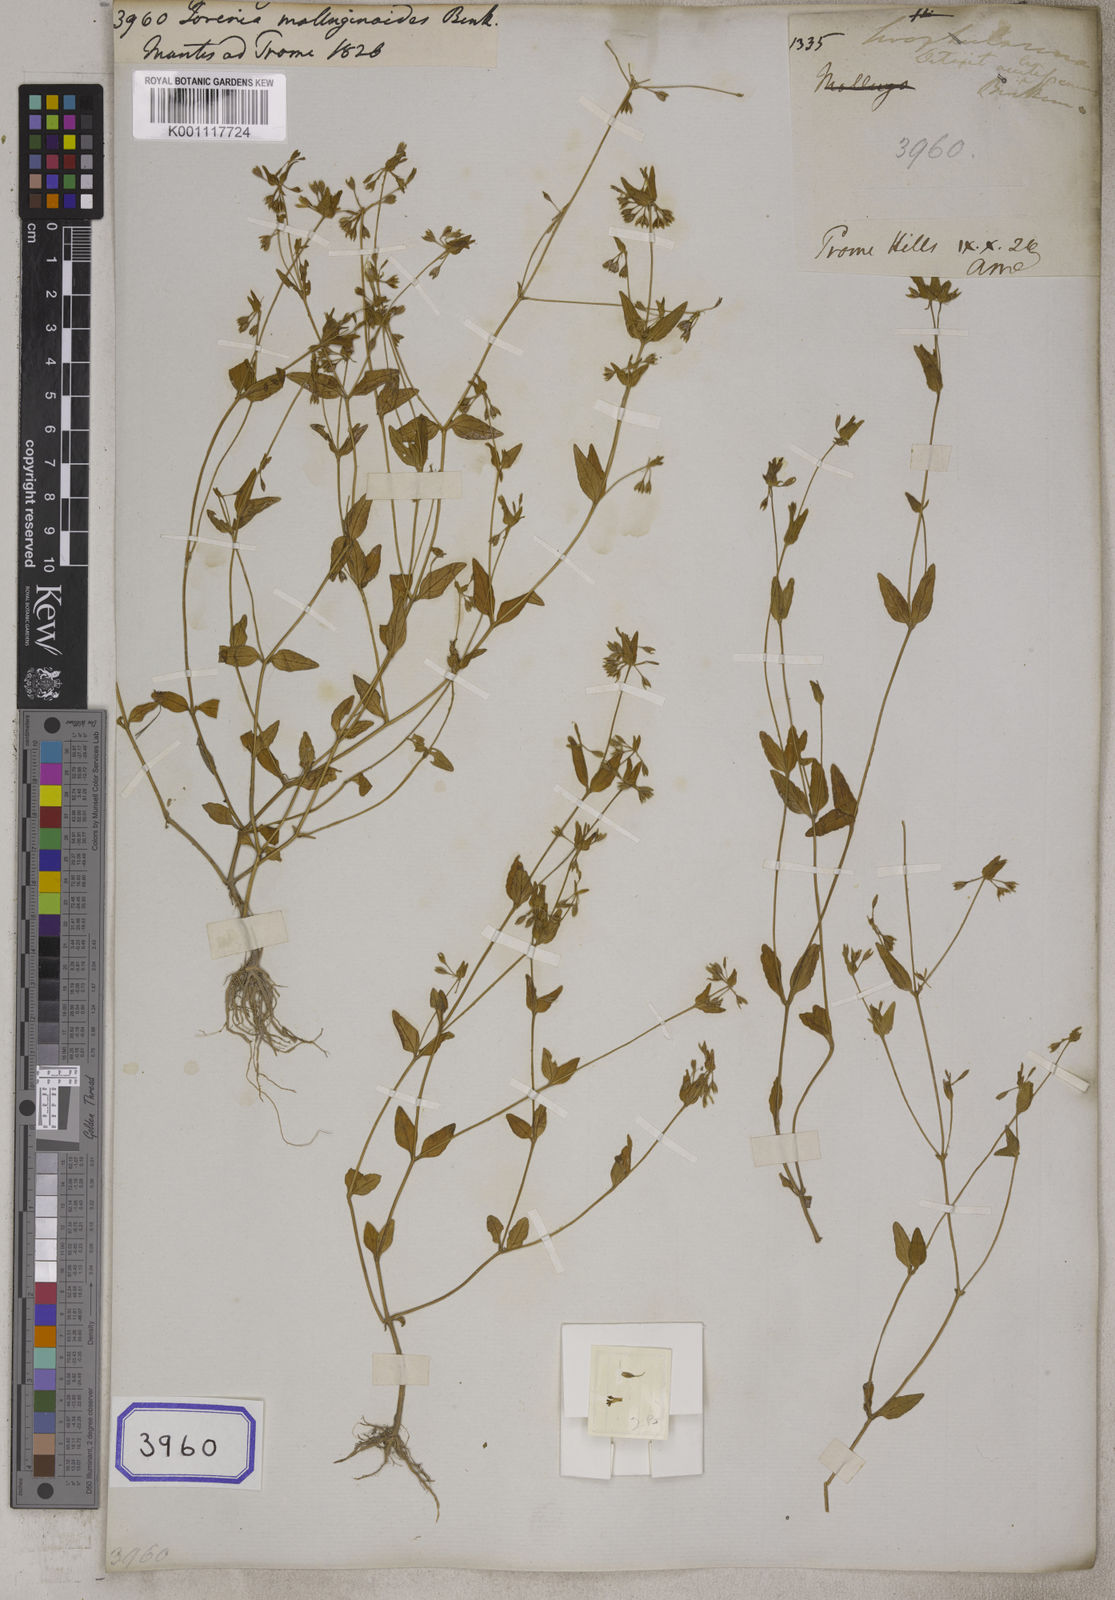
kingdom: Plantae
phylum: Tracheophyta
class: Magnoliopsida
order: Lamiales
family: Linderniaceae
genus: Torenia
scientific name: Torenia
